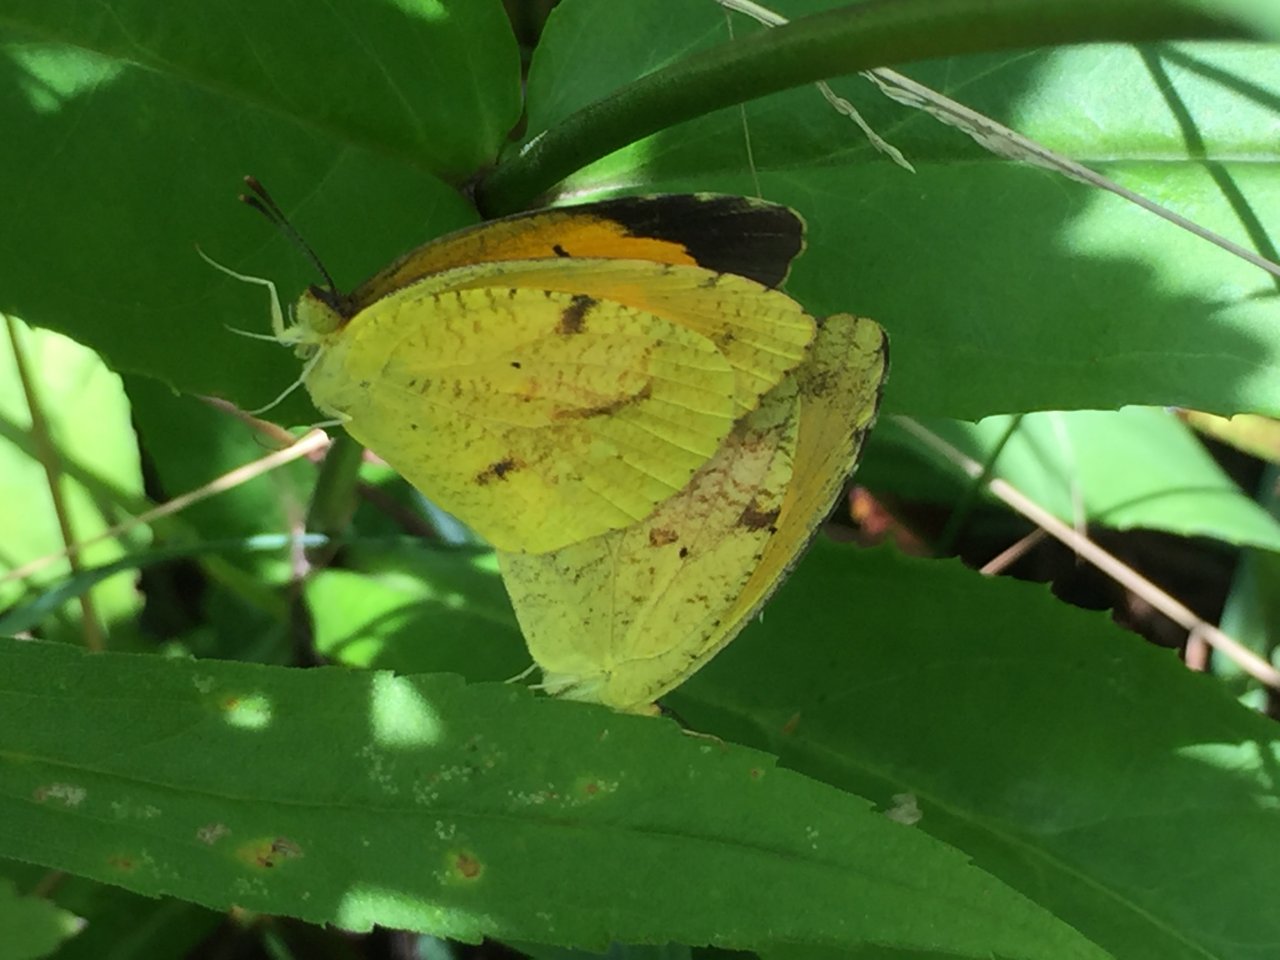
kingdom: Animalia
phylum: Arthropoda
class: Insecta
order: Lepidoptera
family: Pieridae
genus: Abaeis
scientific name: Abaeis nicippe
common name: Sleepy Orange
